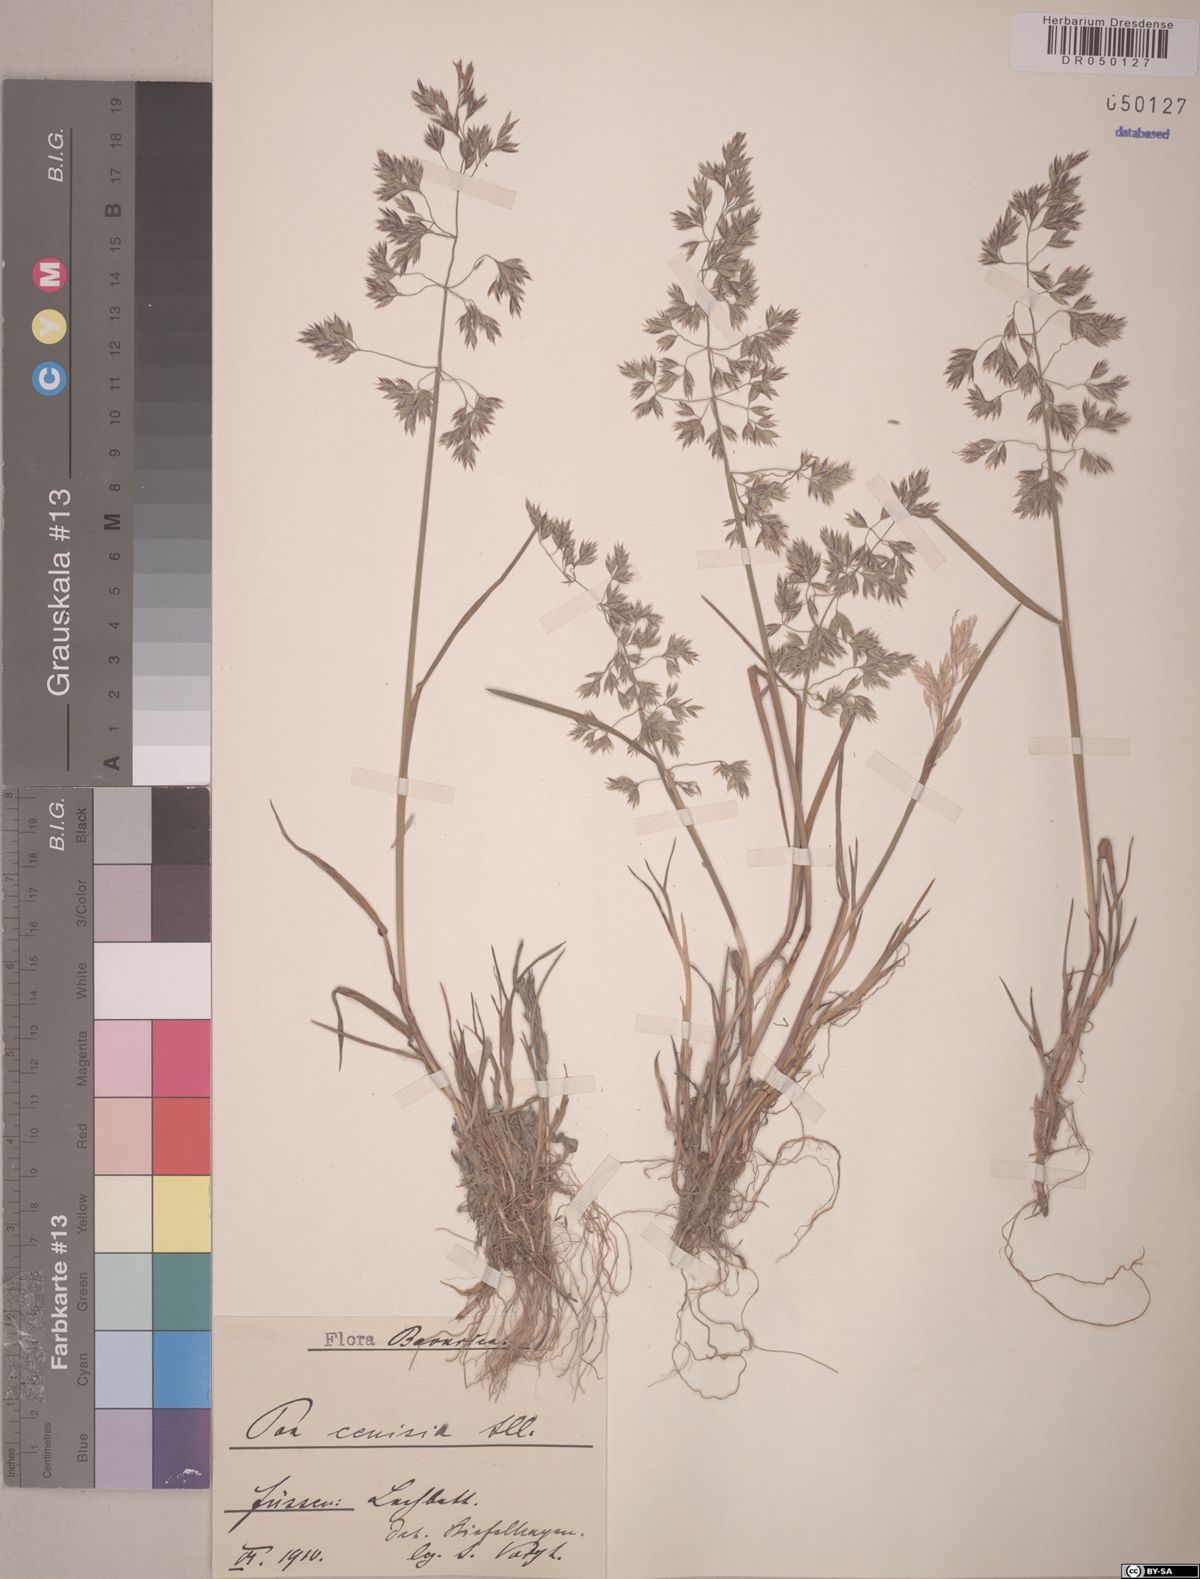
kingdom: Plantae
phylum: Tracheophyta
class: Liliopsida
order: Poales
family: Poaceae
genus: Poa
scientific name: Poa cenisia
